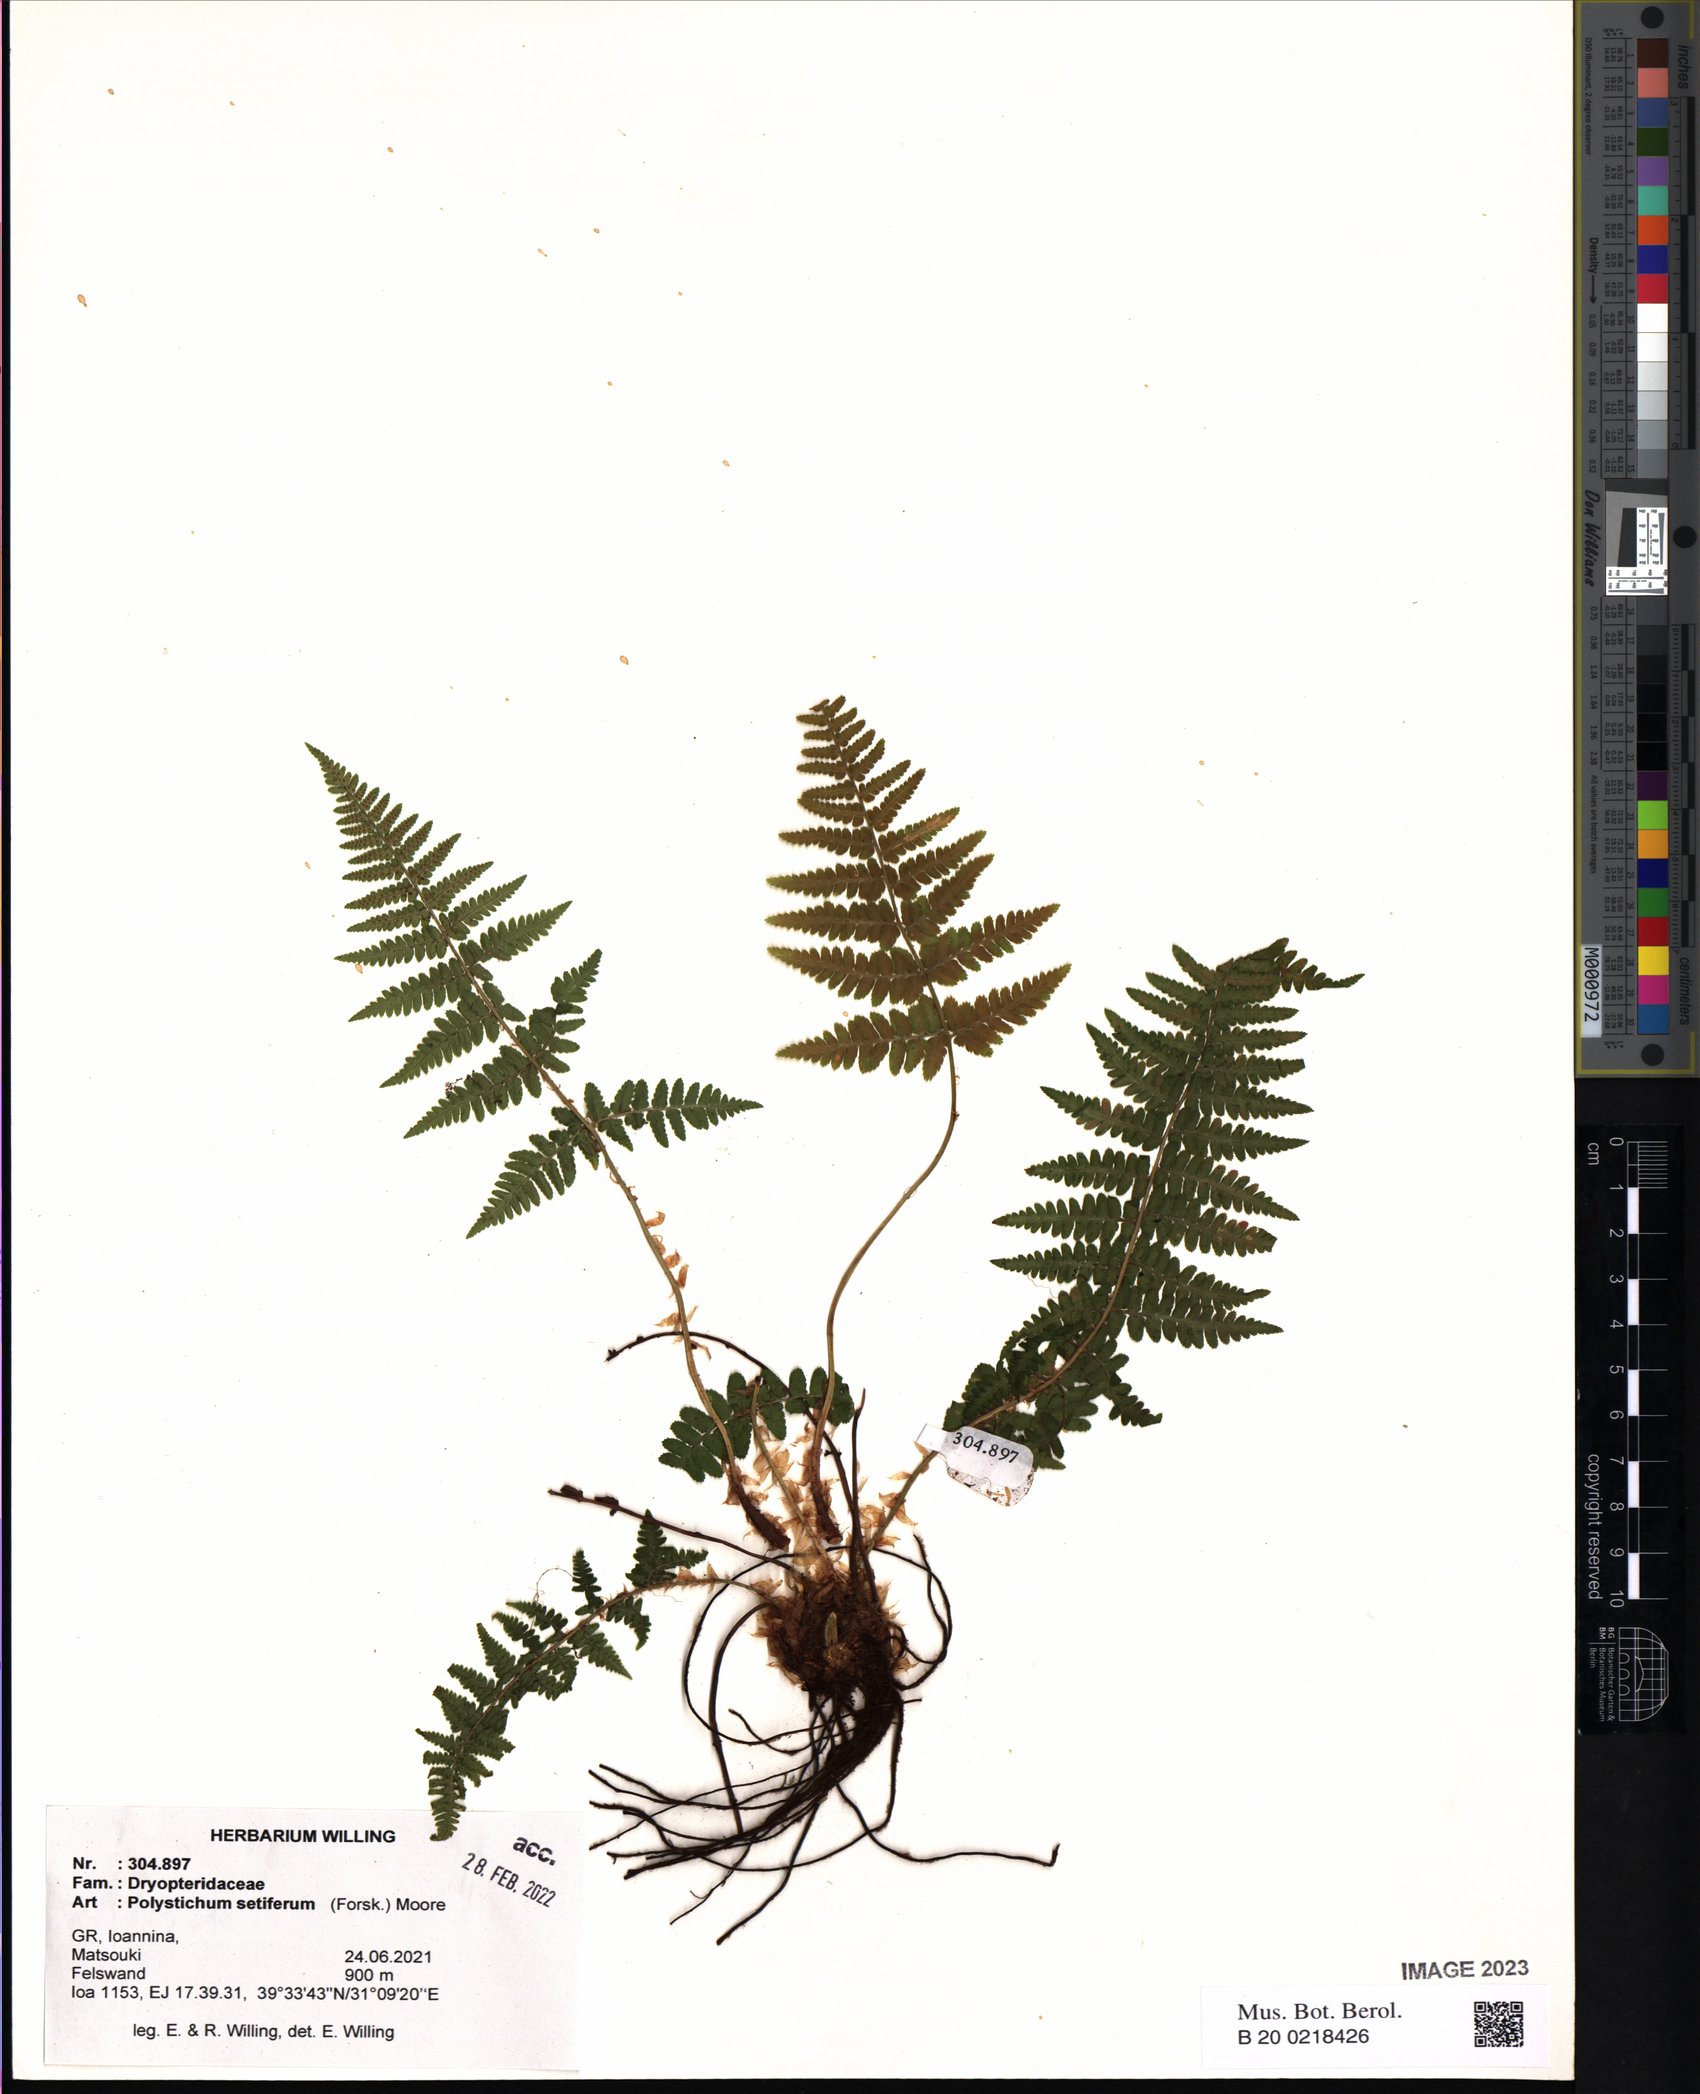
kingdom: Plantae
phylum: Tracheophyta
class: Polypodiopsida
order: Polypodiales
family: Dryopteridaceae
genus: Polystichum
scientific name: Polystichum setiferum
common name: Soft shield-fern
